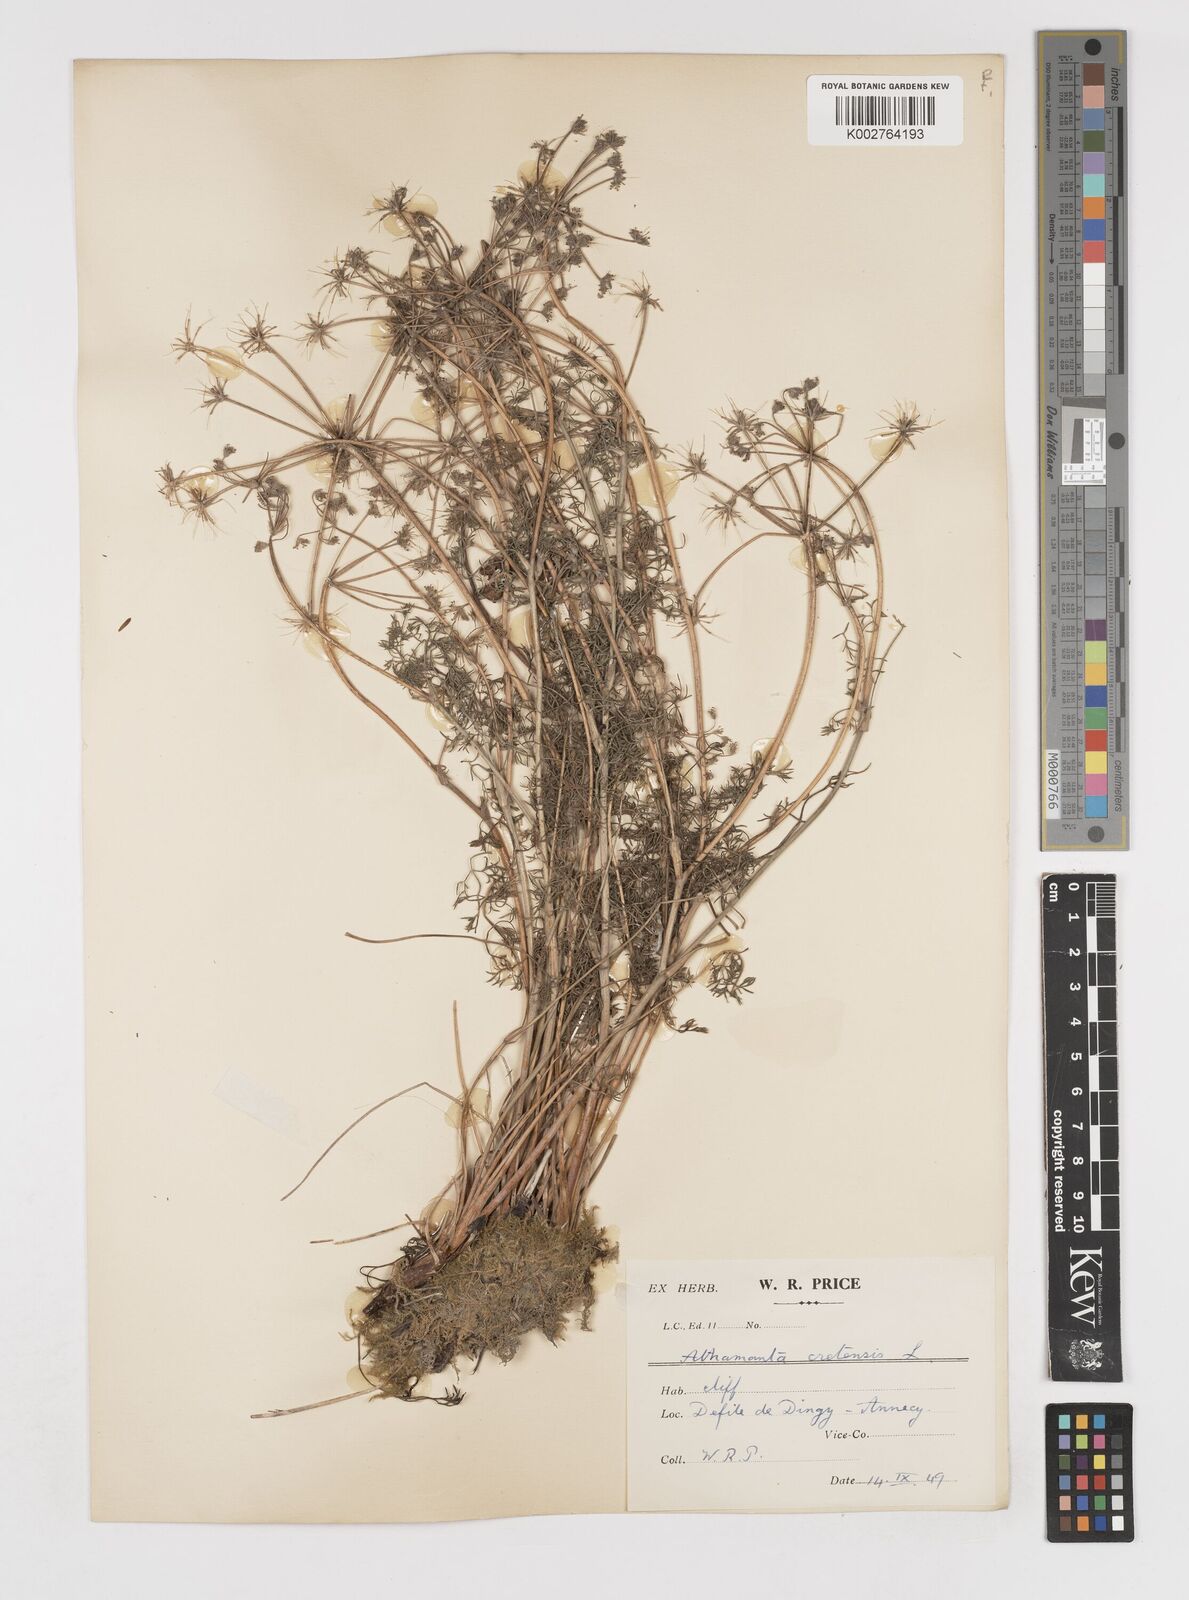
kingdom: Plantae
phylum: Tracheophyta
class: Magnoliopsida
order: Apiales
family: Apiaceae
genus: Athamanta
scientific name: Athamanta cretensis
